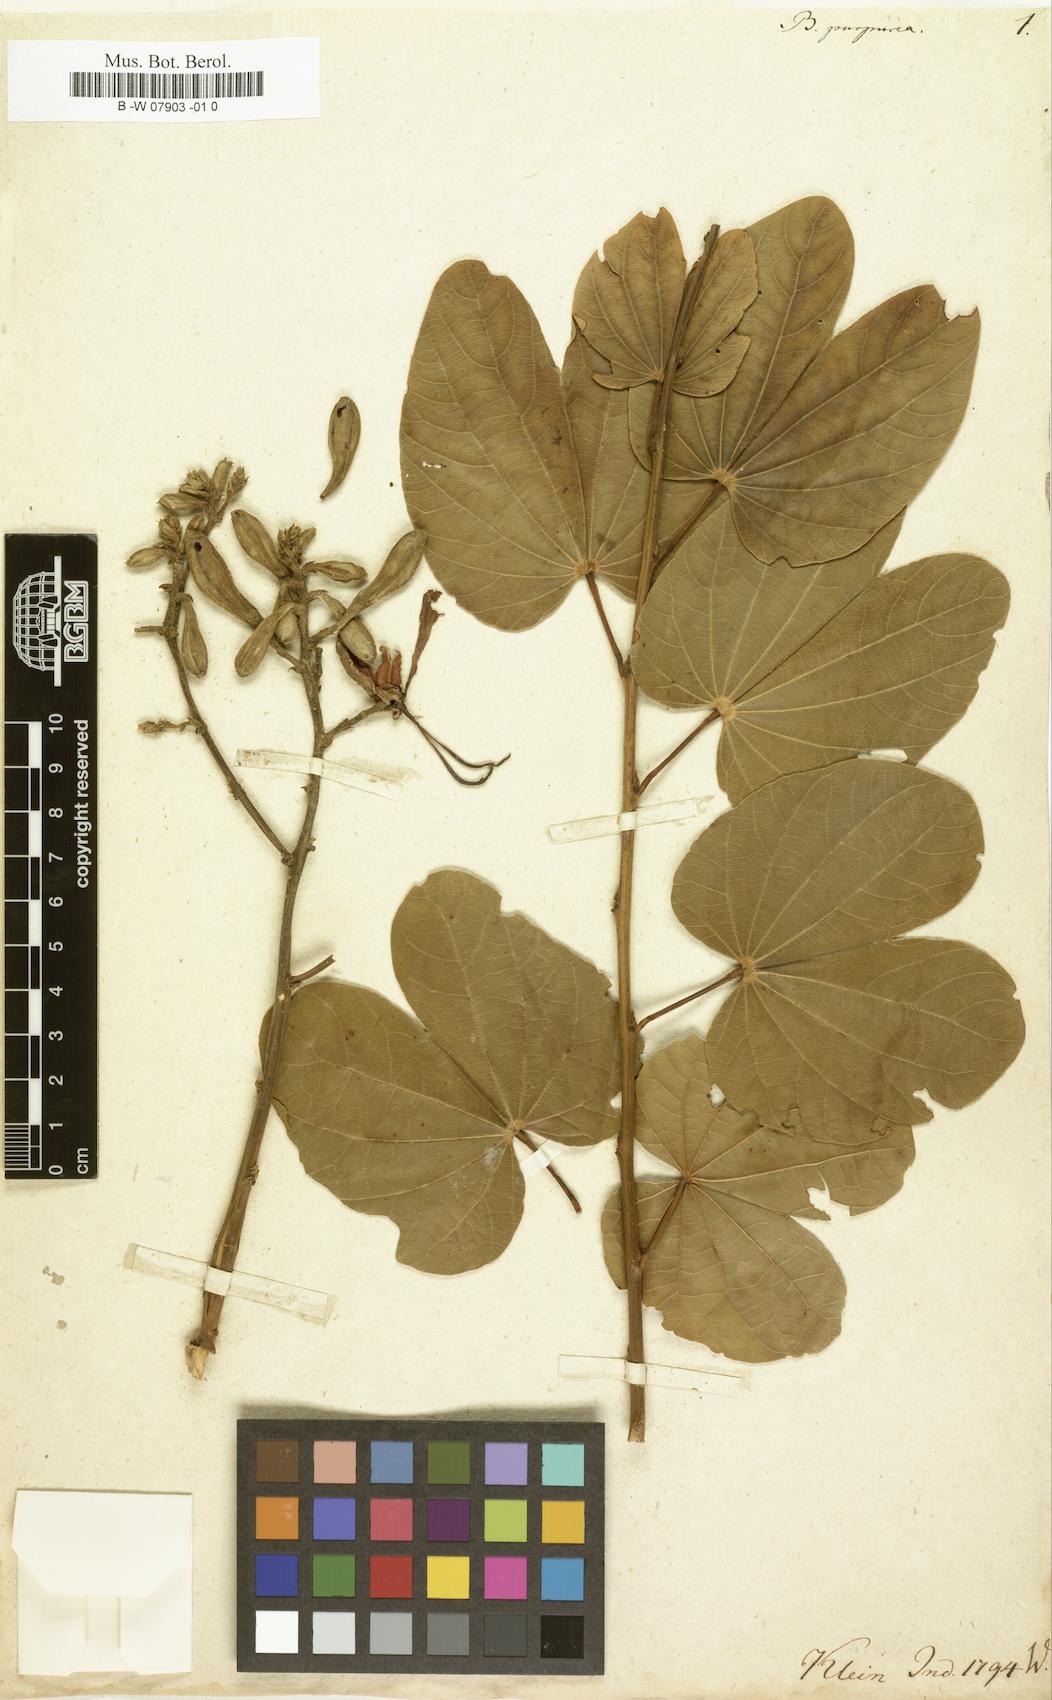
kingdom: Plantae
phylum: Tracheophyta
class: Magnoliopsida
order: Fabales
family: Fabaceae
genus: Bauhinia
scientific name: Bauhinia purpurea
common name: Butterfly-tree
